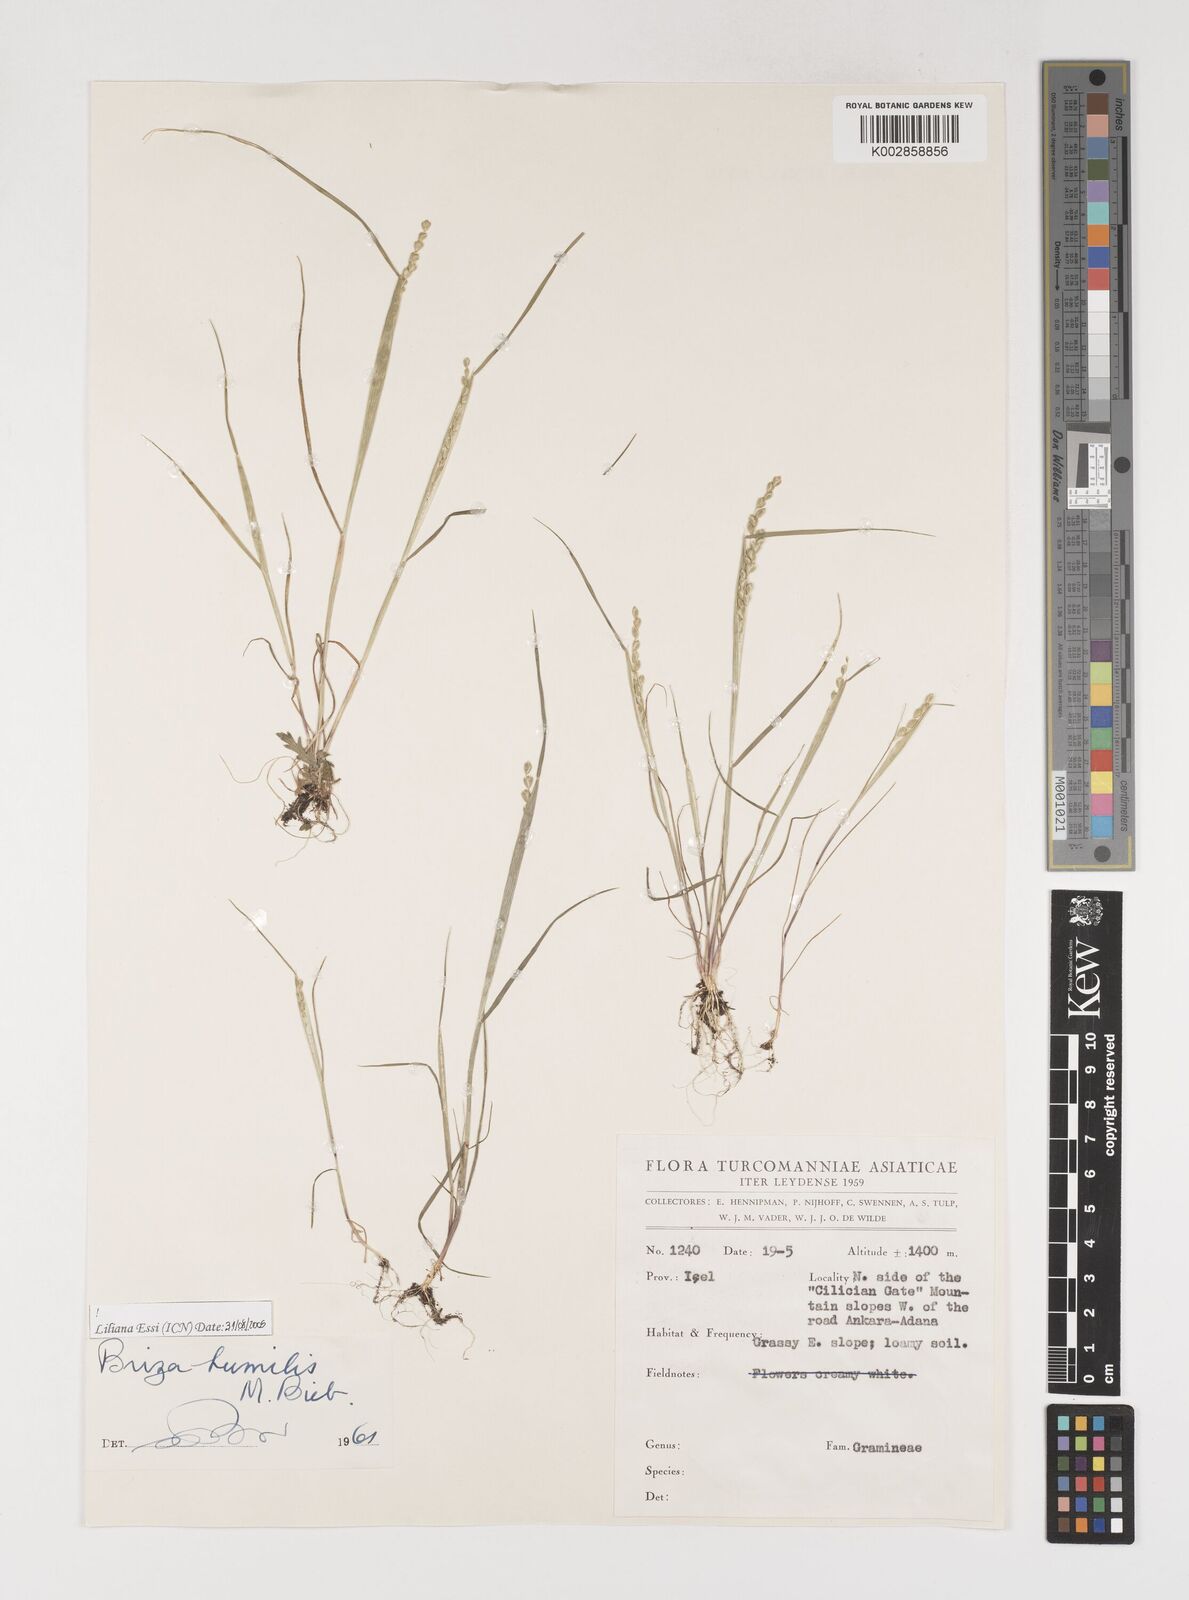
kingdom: Plantae
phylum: Tracheophyta
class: Liliopsida
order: Poales
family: Poaceae
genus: Briza
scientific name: Briza humilis
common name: Spiked quaking grass
